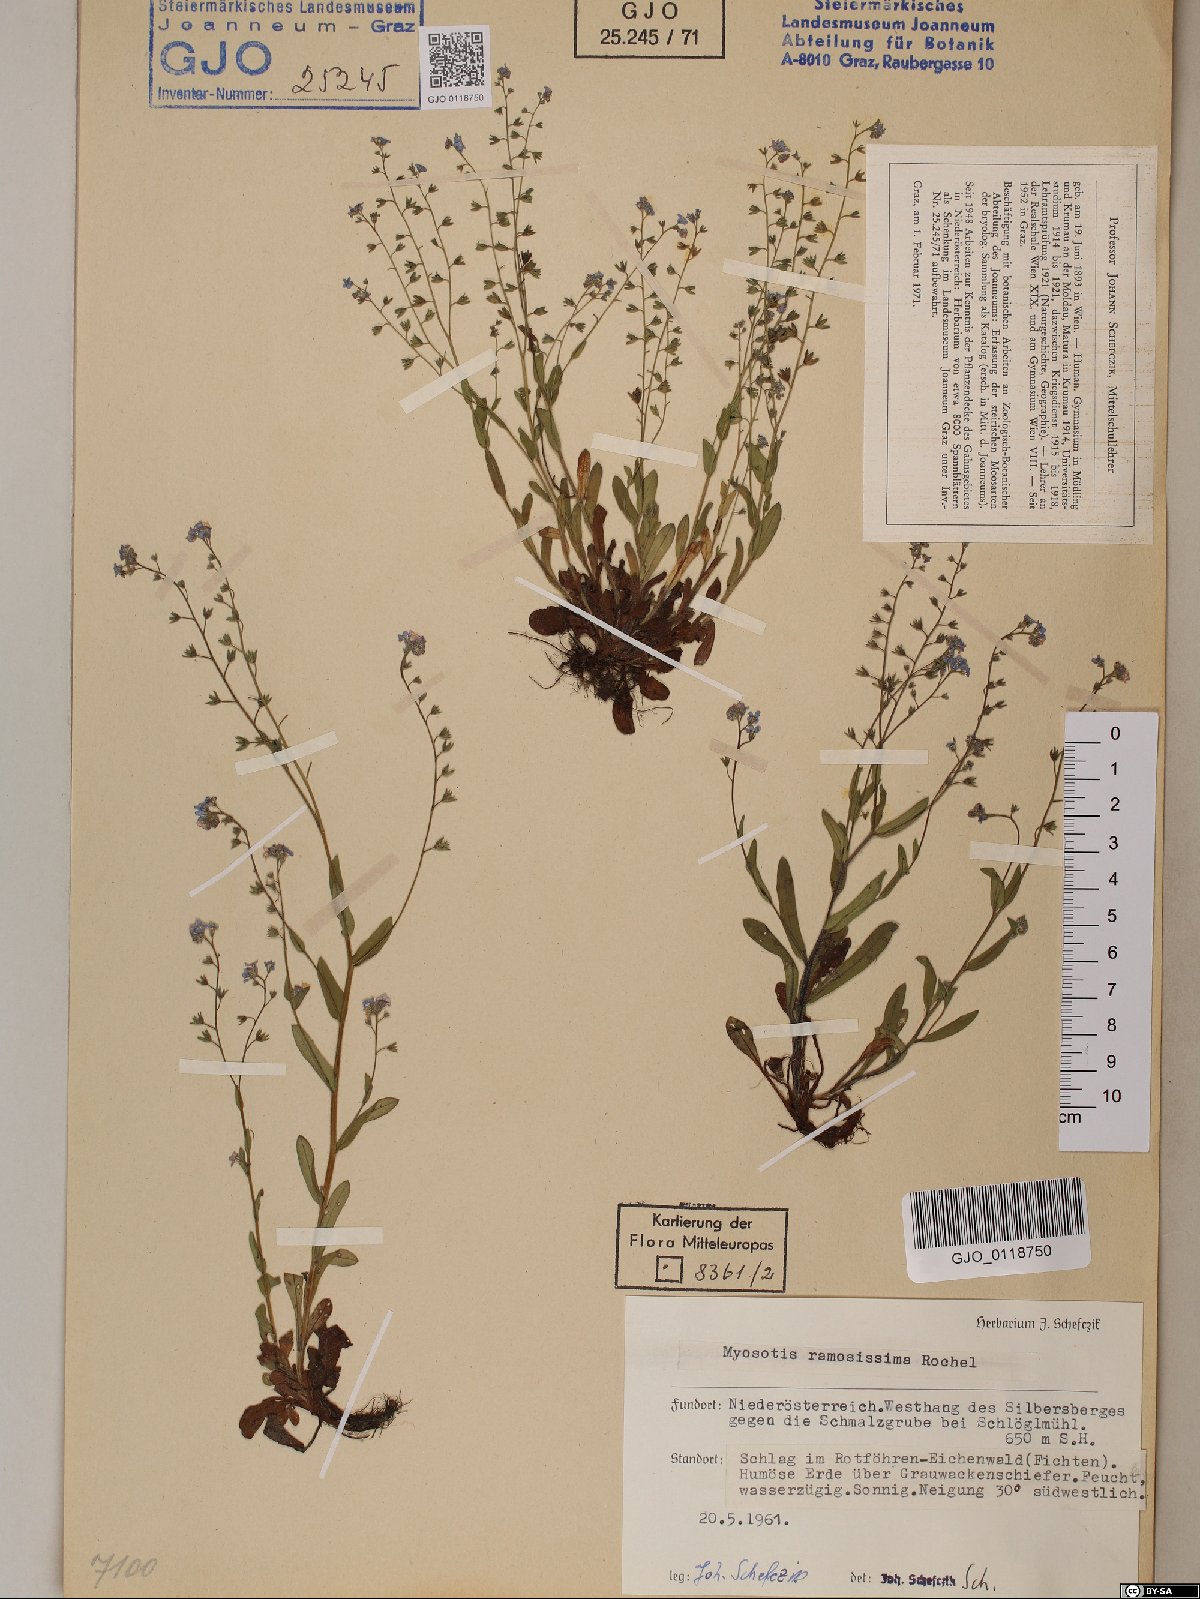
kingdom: Plantae
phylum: Tracheophyta
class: Magnoliopsida
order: Boraginales
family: Boraginaceae
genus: Myosotis
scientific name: Myosotis ramosissima
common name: Early forget-me-not
